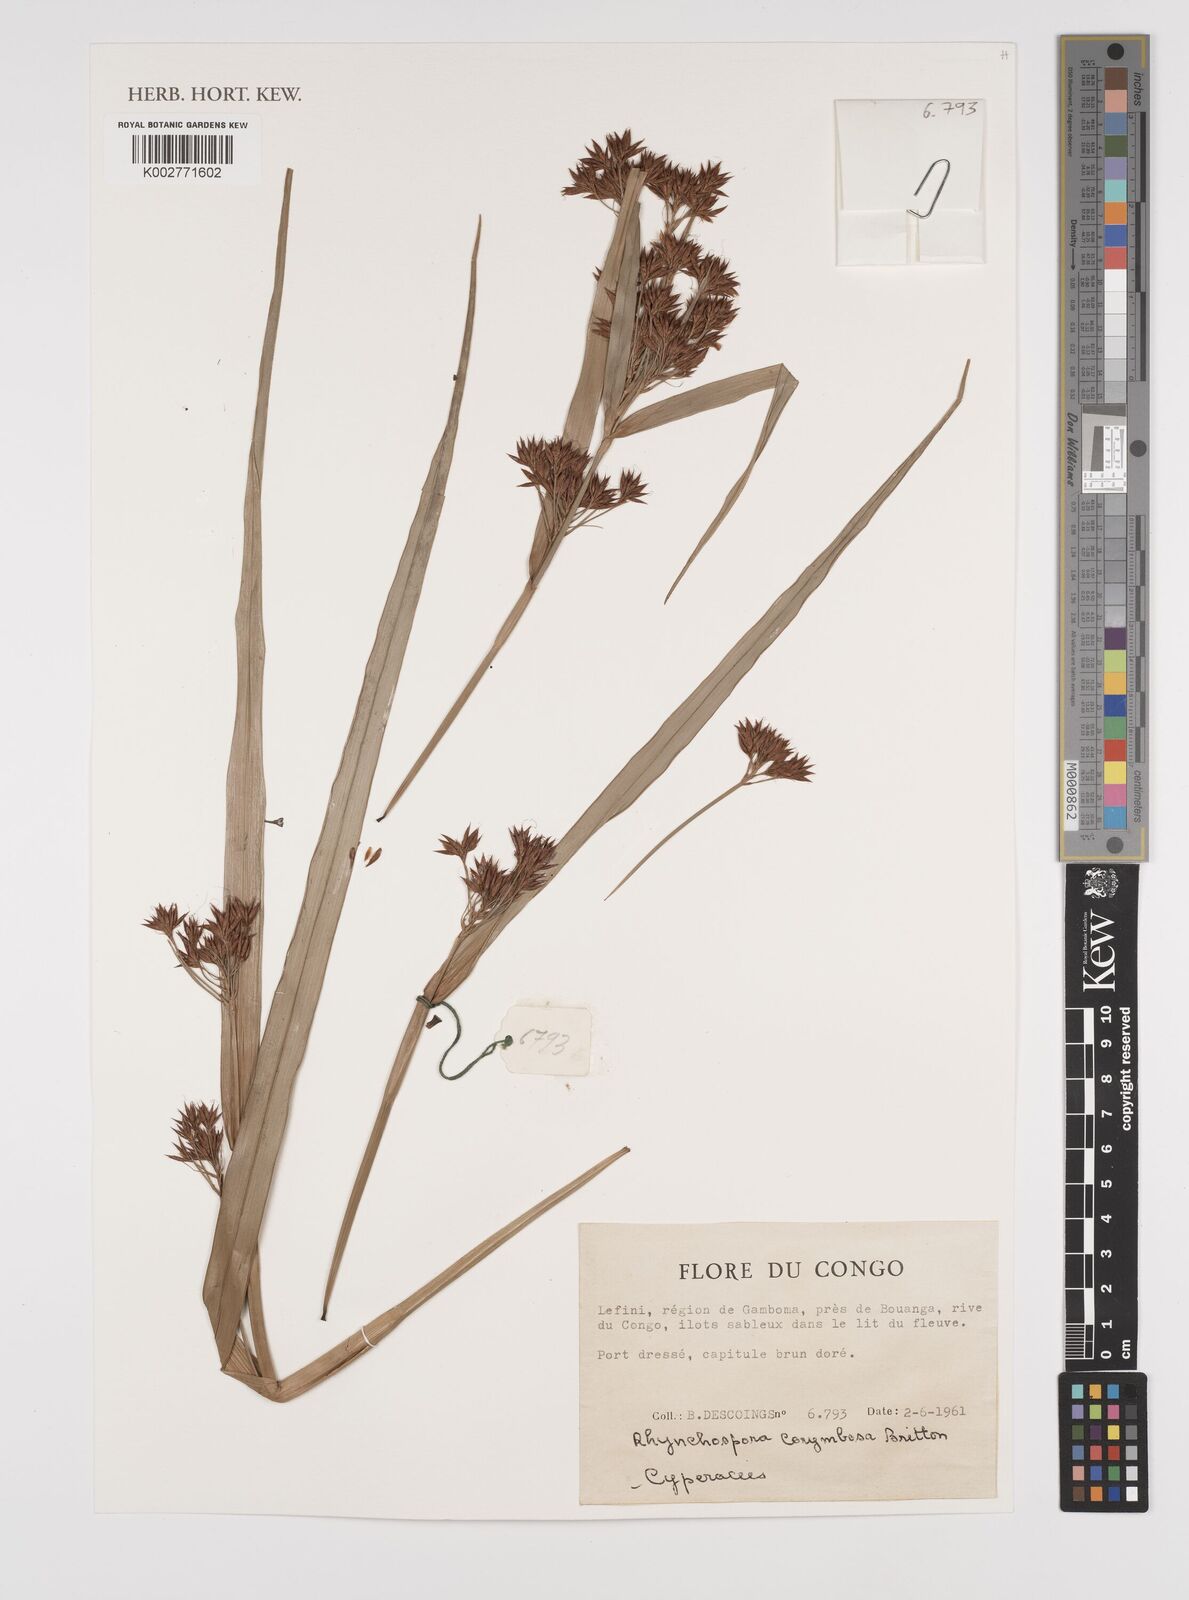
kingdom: Plantae
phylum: Tracheophyta
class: Liliopsida
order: Poales
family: Cyperaceae
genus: Rhynchospora
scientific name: Rhynchospora corymbosa
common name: Golden beak sedge
